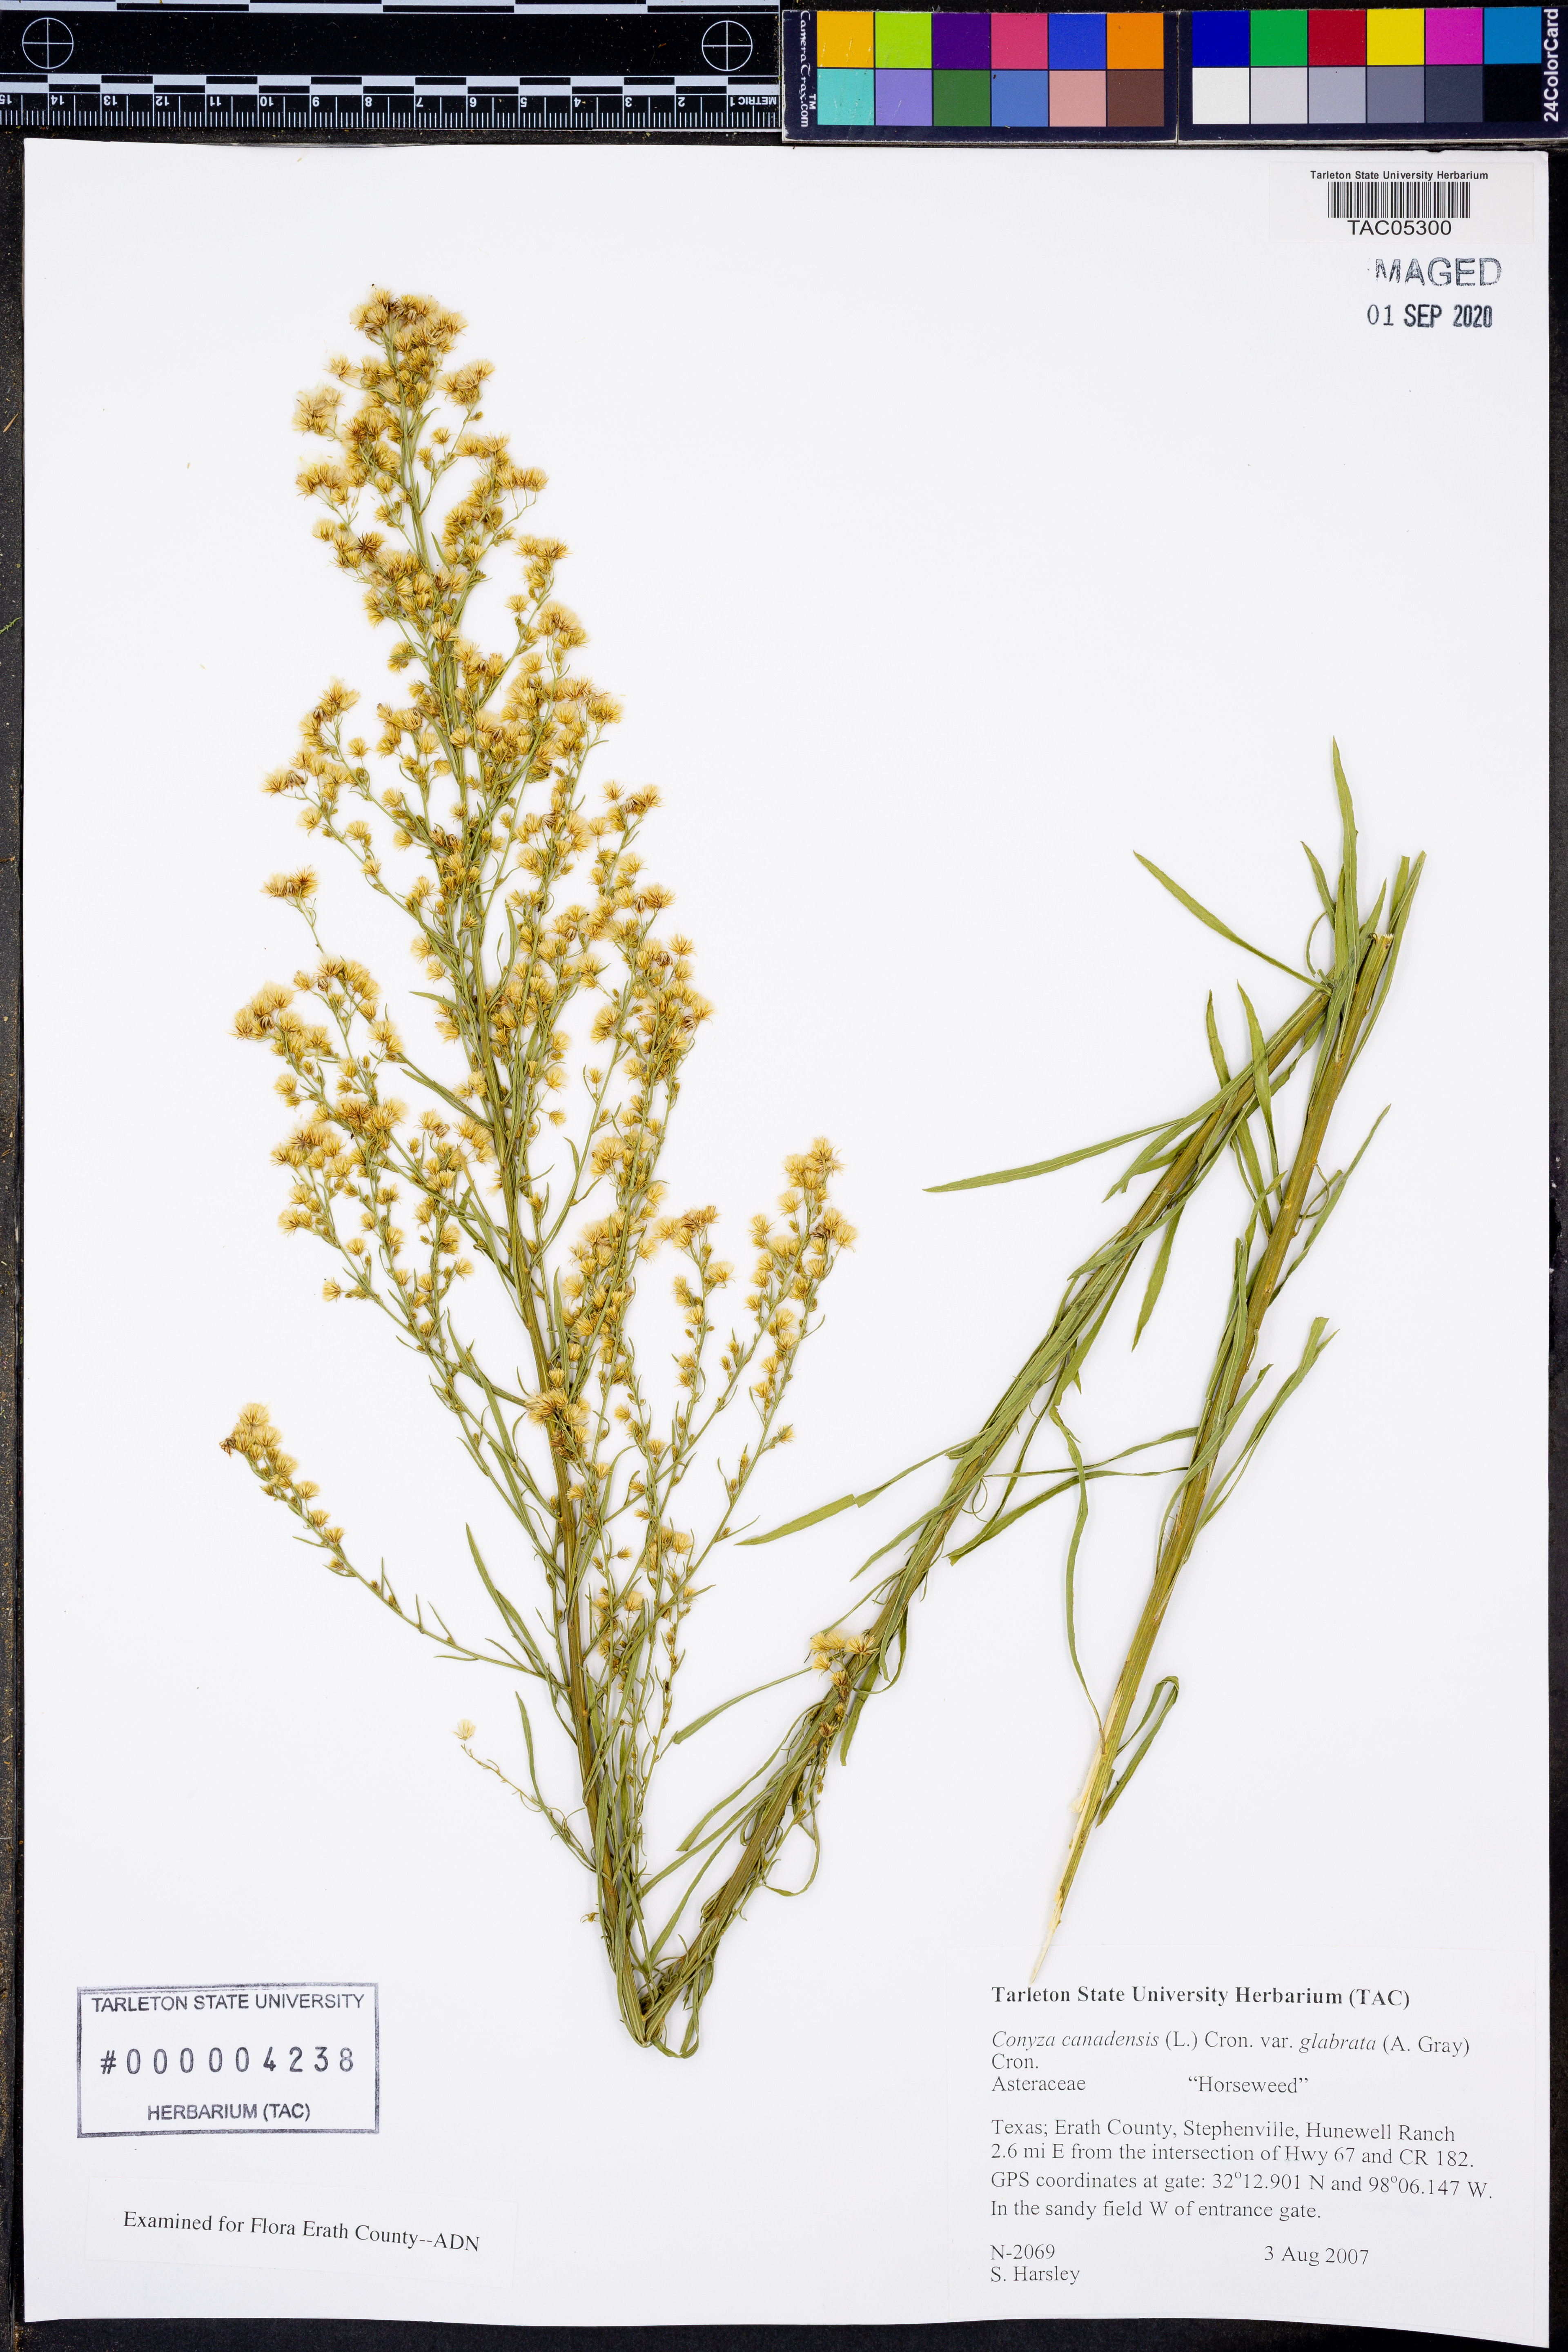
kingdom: Plantae
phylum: Tracheophyta
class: Magnoliopsida
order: Asterales
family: Asteraceae
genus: Erigeron
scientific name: Erigeron canadensis
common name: Canadian fleabane
